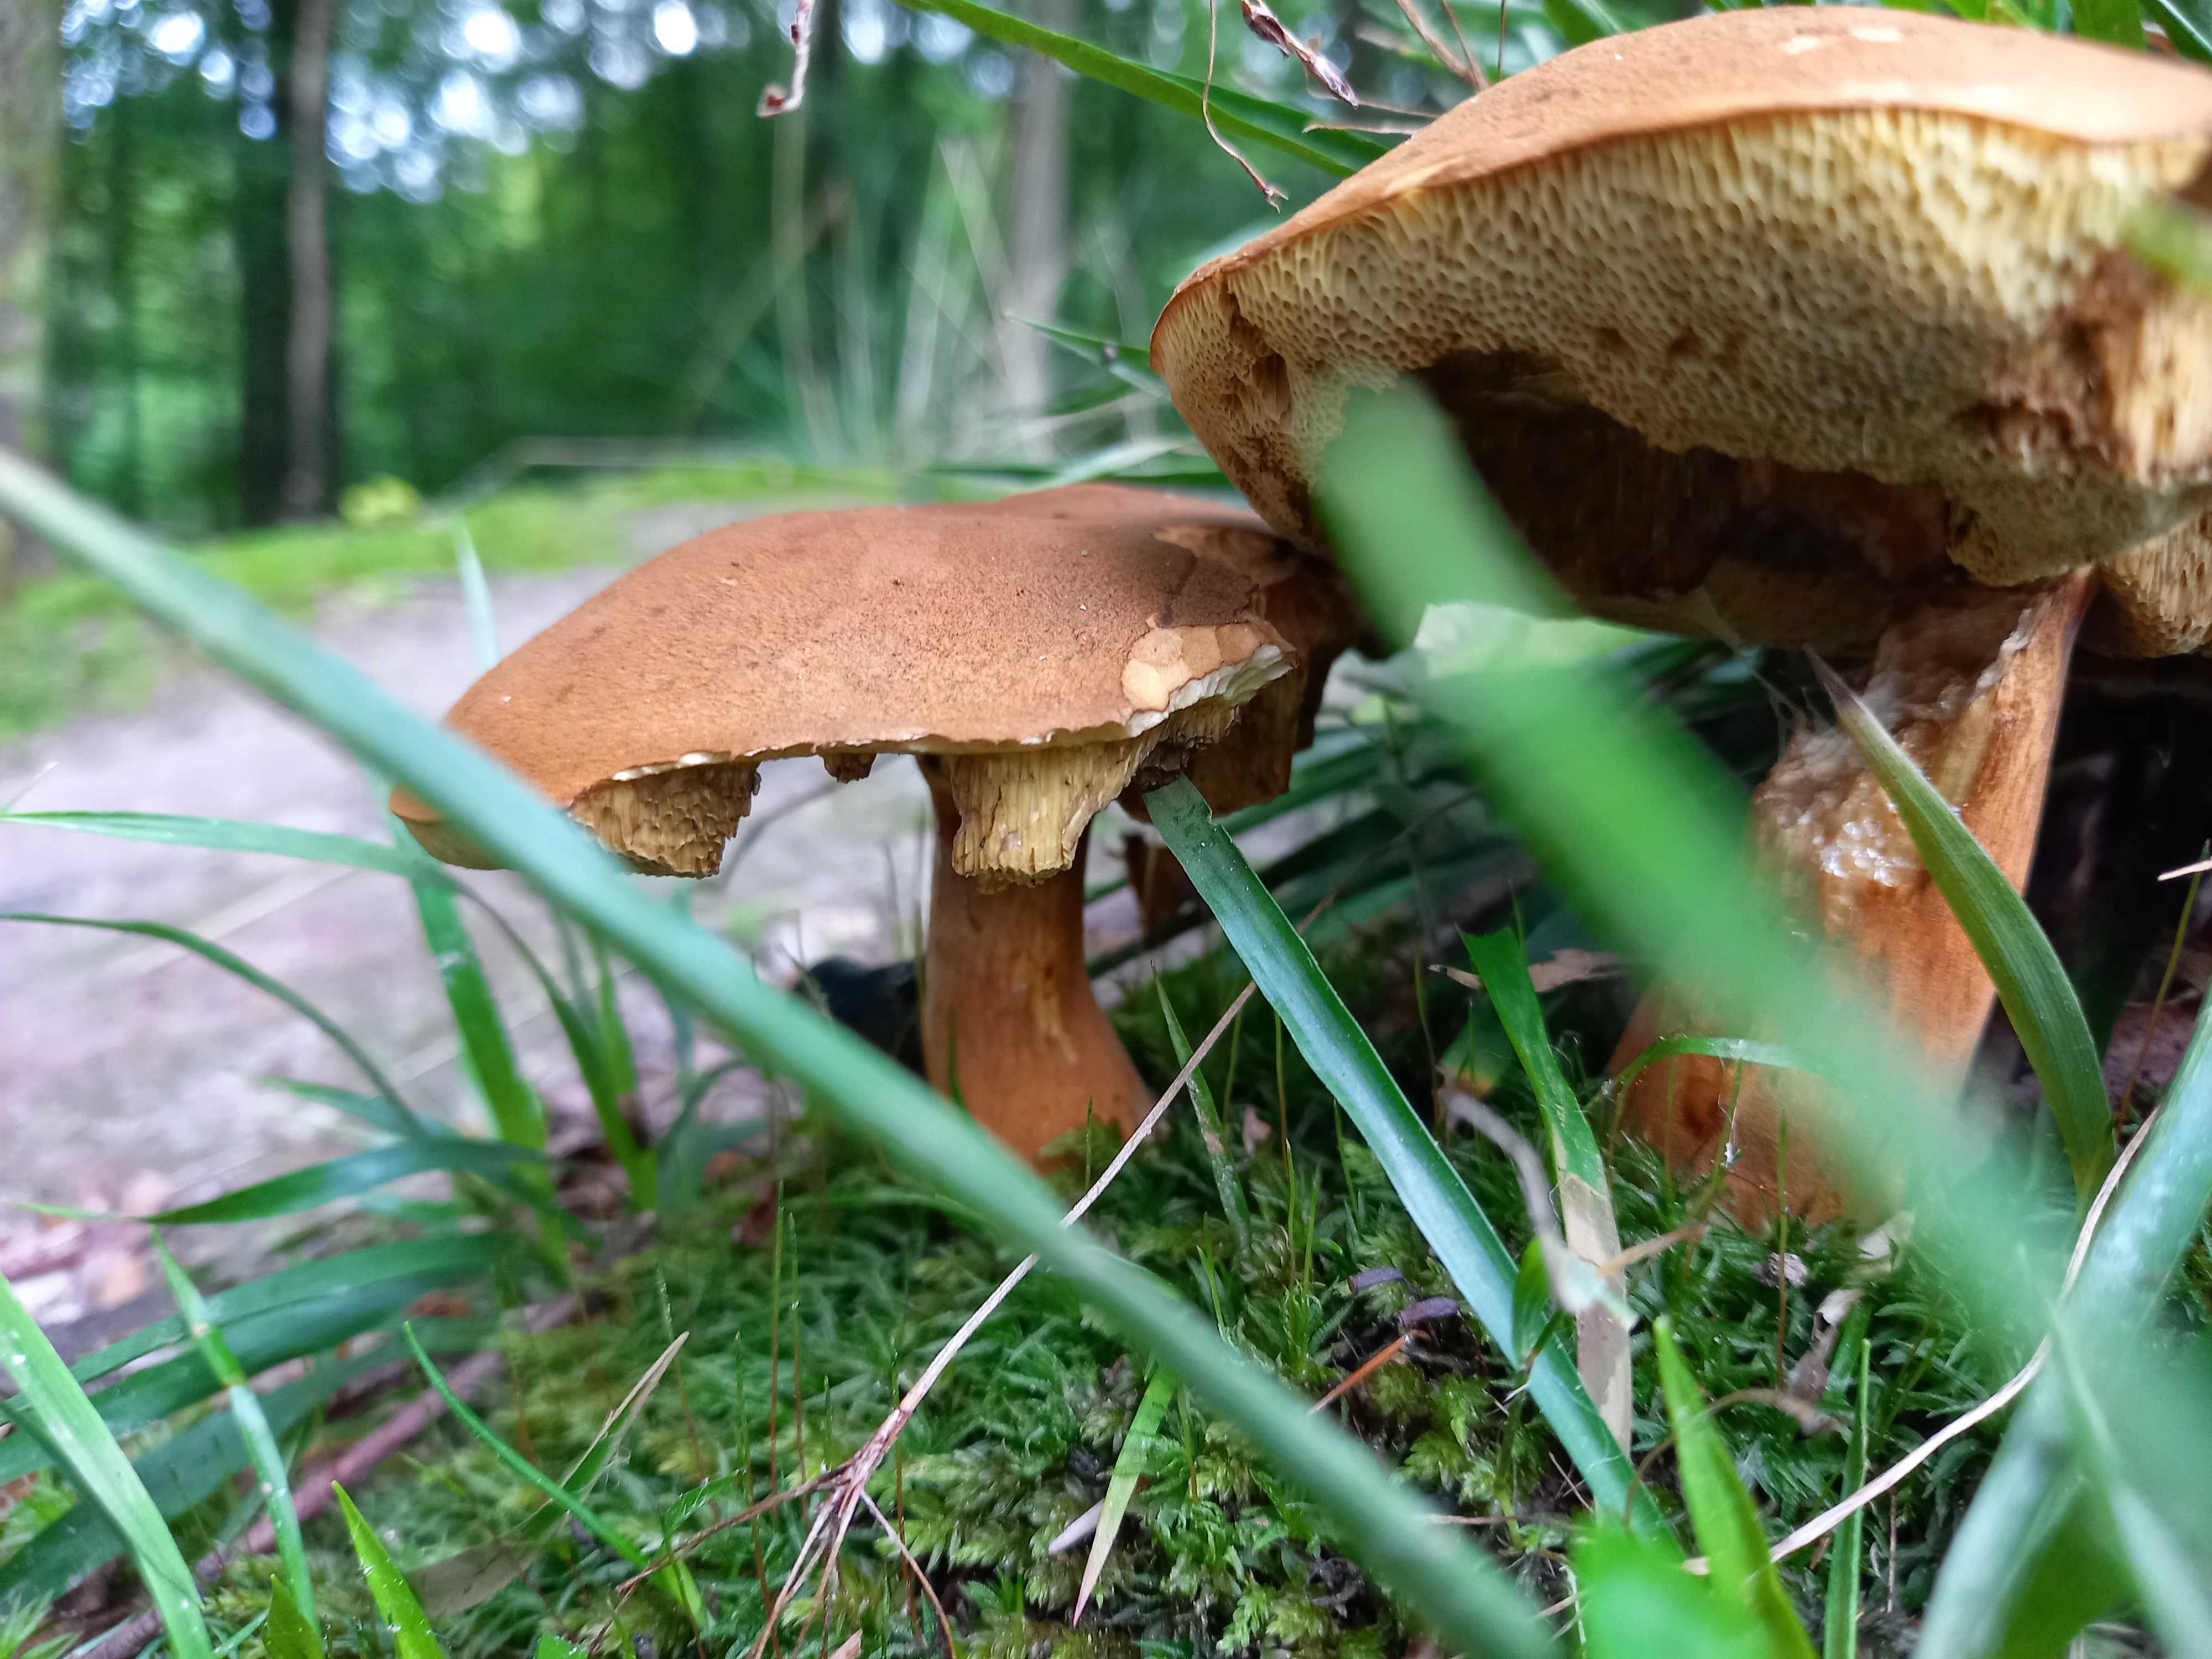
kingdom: Fungi
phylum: Basidiomycota
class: Agaricomycetes
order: Boletales
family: Boletaceae
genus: Imleria
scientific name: Imleria badia
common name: brunstokket rørhat
